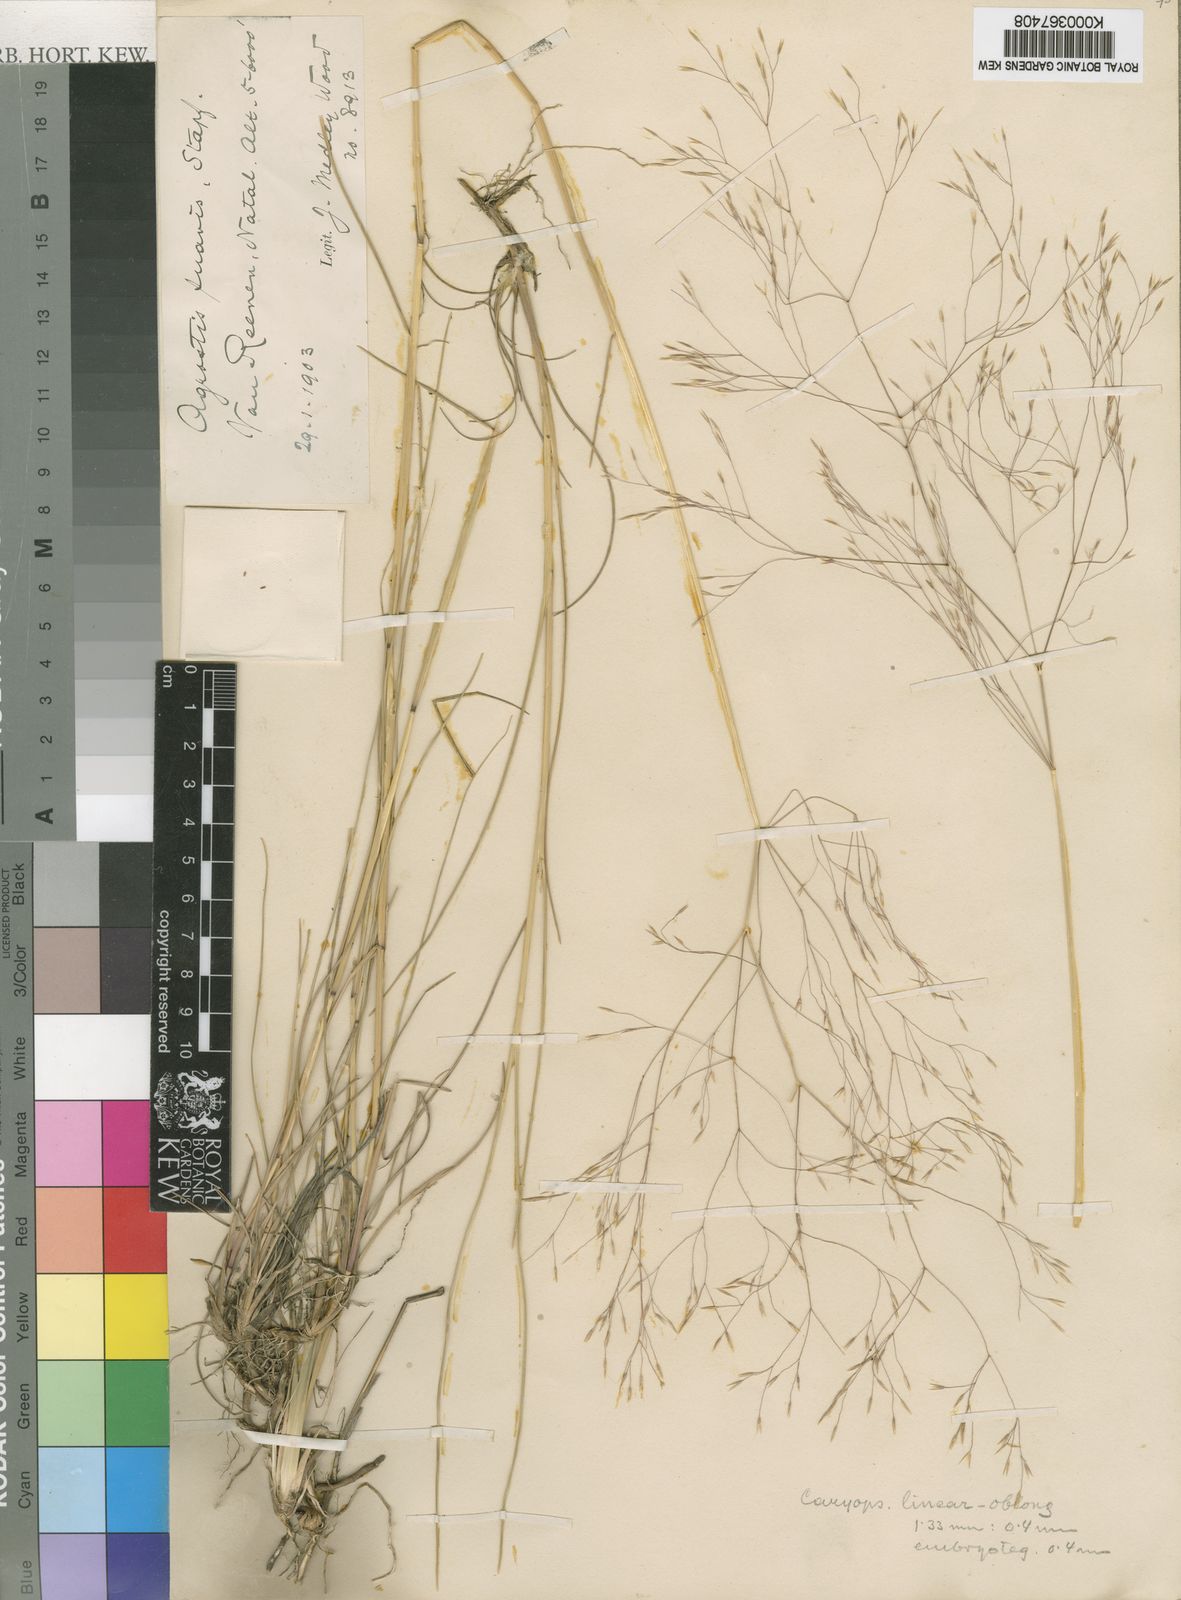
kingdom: Plantae
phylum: Tracheophyta
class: Liliopsida
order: Poales
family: Poaceae
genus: Lachnagrostis
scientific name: Lachnagrostis eriantha
